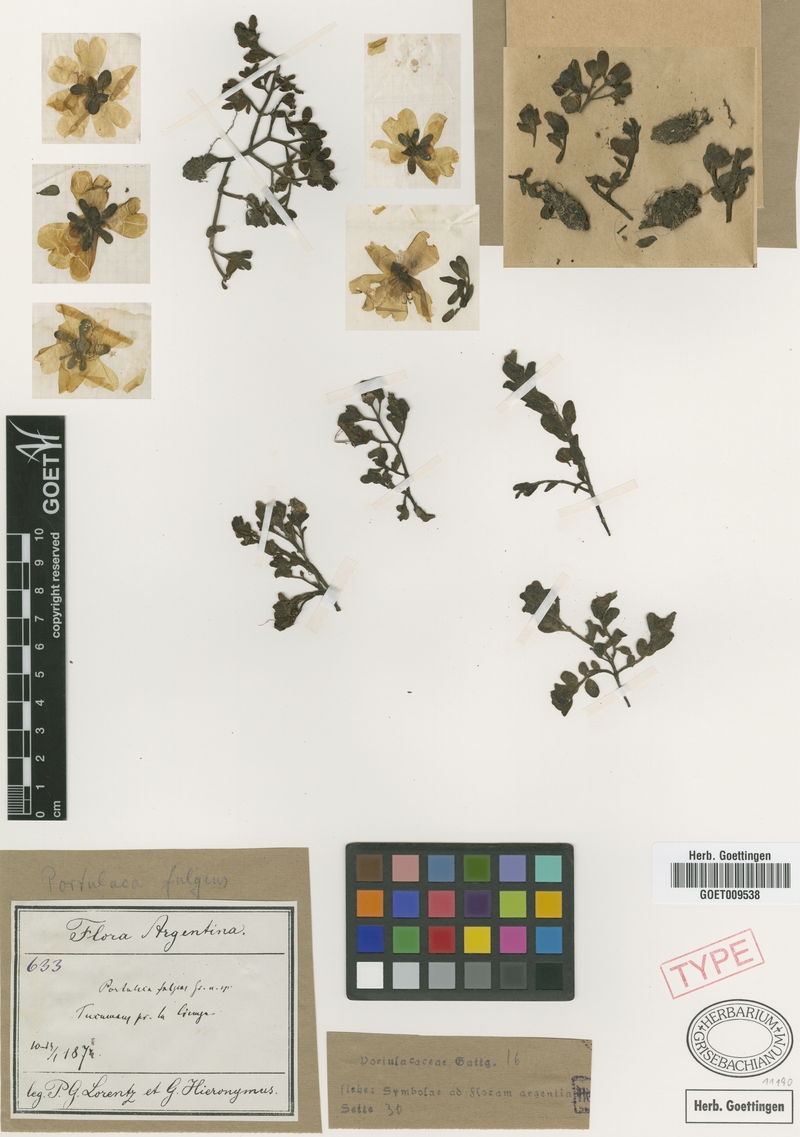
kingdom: Plantae
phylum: Tracheophyta
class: Magnoliopsida
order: Caryophyllales
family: Portulacaceae
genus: Portulaca
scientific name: Portulaca fulgens
